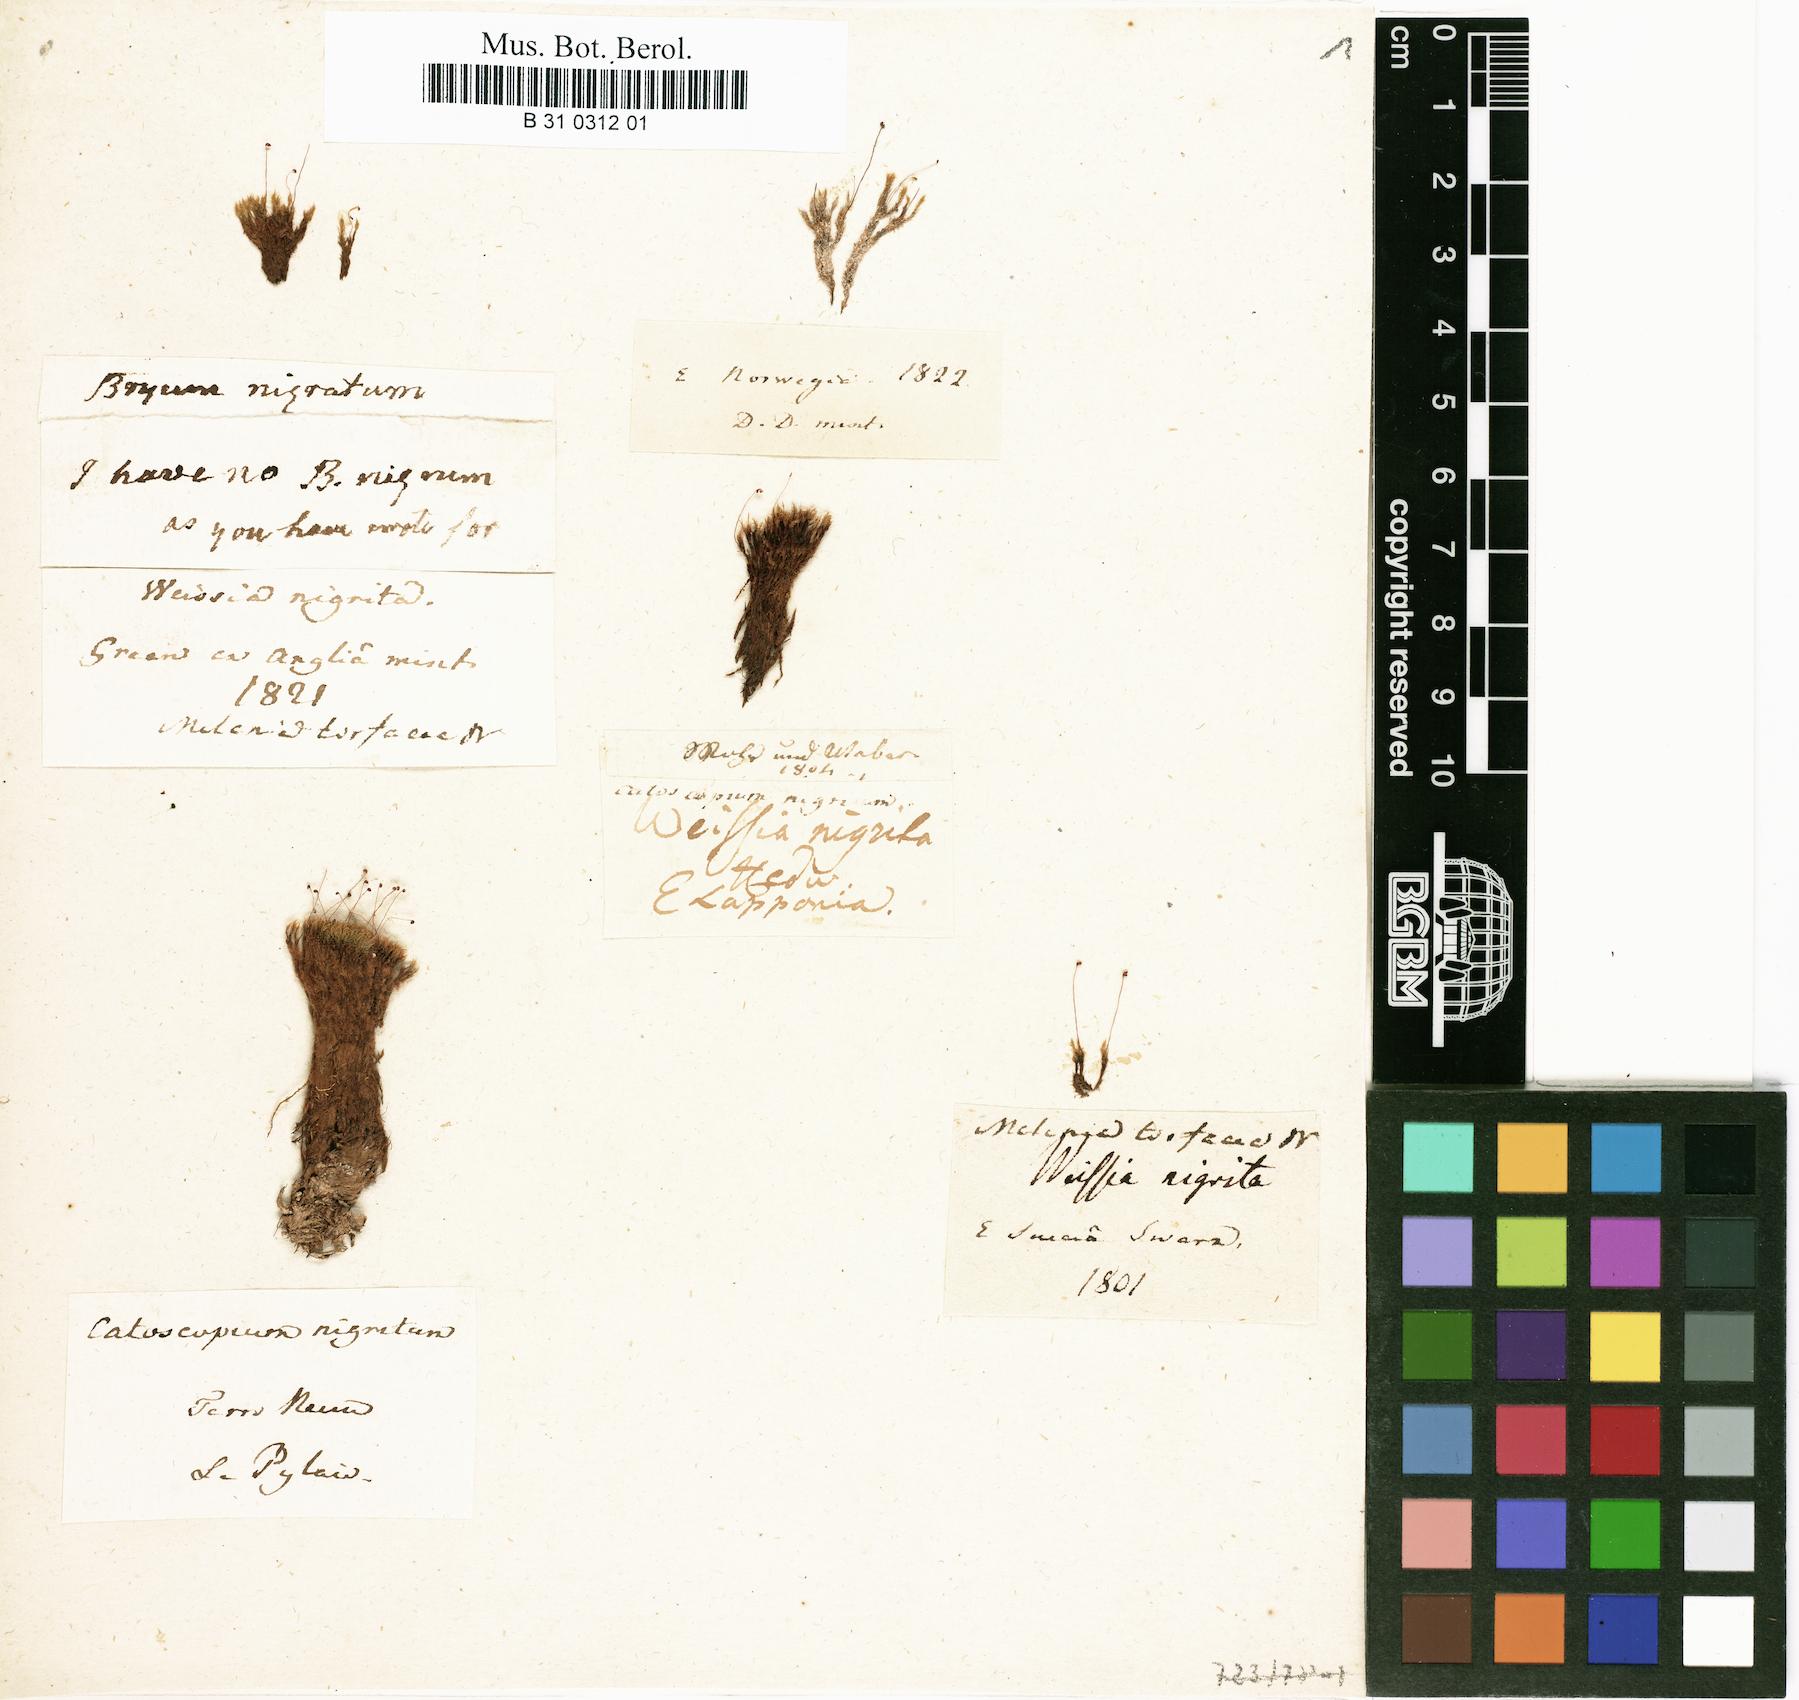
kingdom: Plantae
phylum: Bryophyta
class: Bryopsida
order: Catoscopiales
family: Catoscopiaceae
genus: Catoscopium
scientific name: Catoscopium nigritum
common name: Black golf club moss
